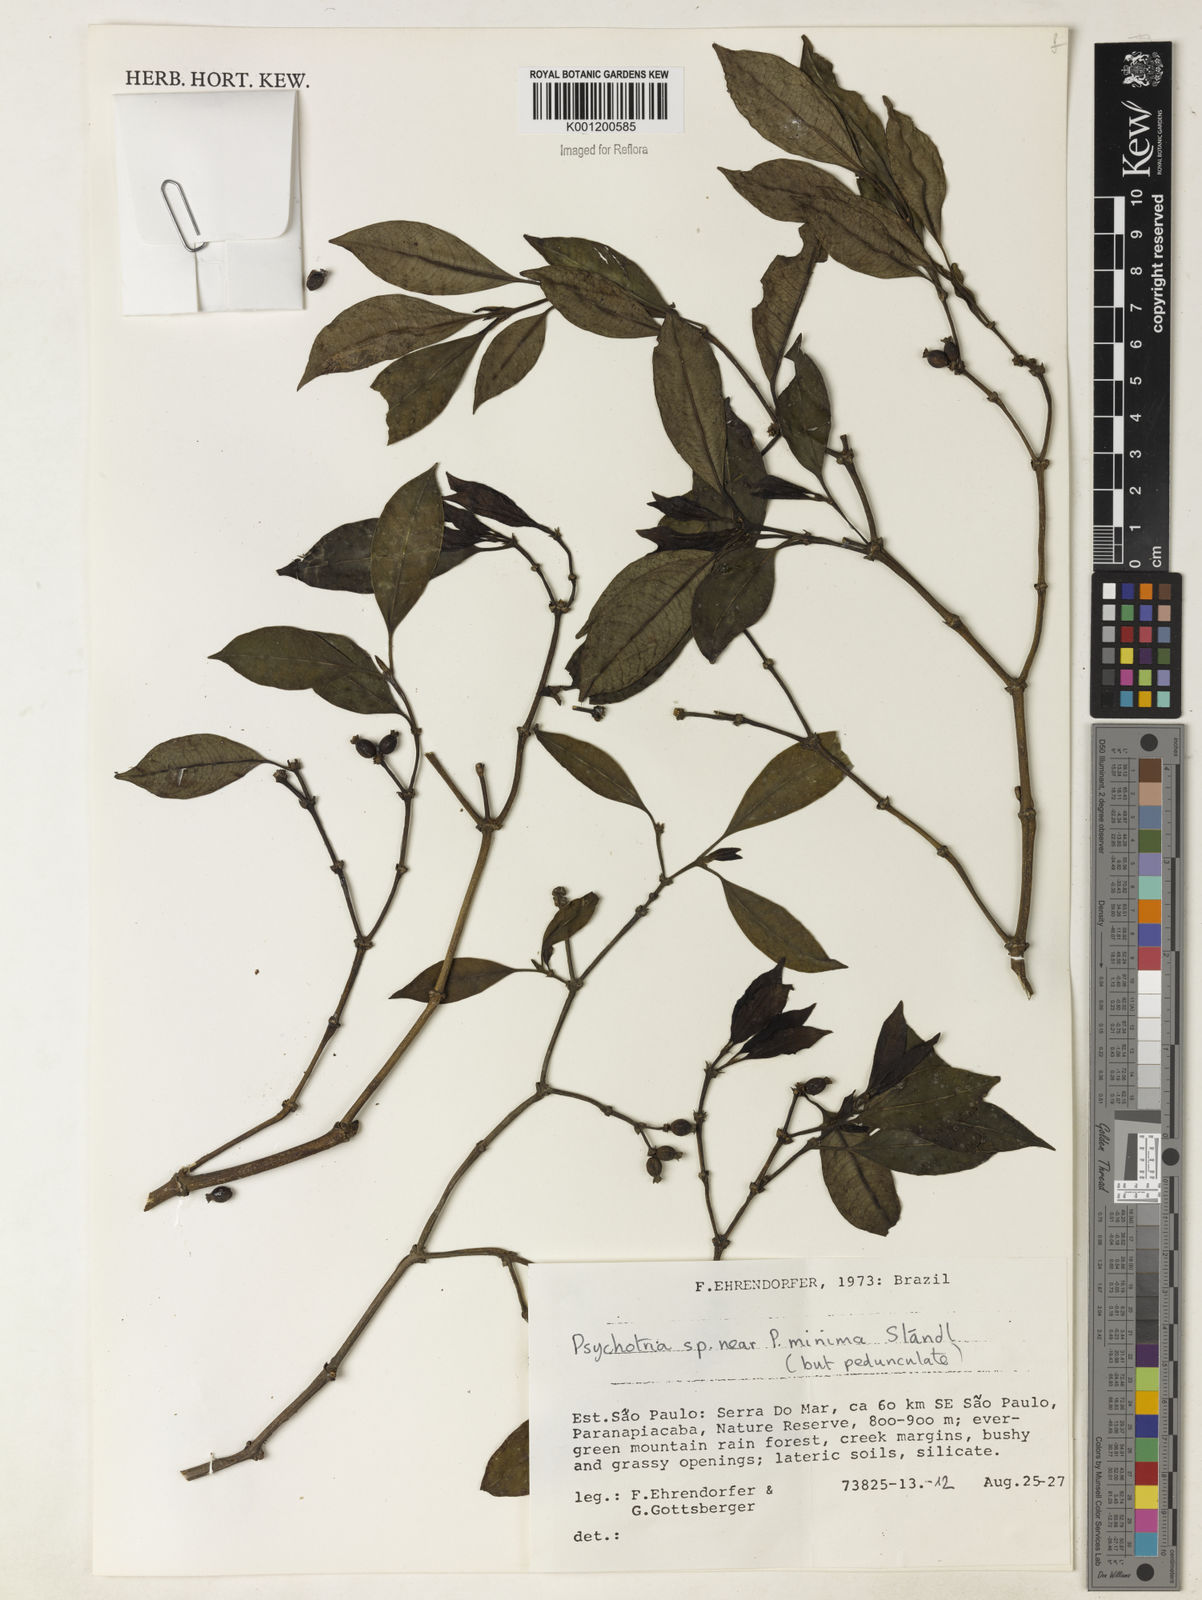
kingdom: Plantae
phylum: Tracheophyta
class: Magnoliopsida
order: Gentianales
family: Rubiaceae
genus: Psychotria
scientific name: Psychotria
